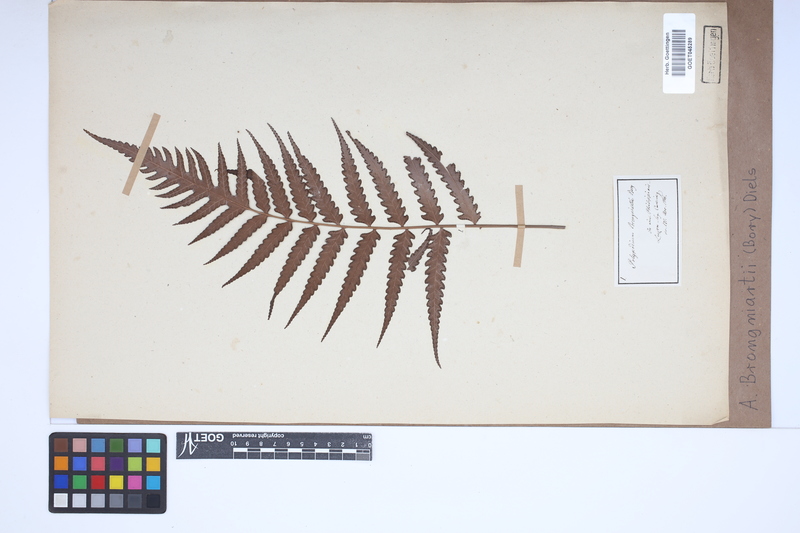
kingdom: Plantae
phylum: Tracheophyta
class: Polypodiopsida
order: Polypodiales
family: Dryopteridaceae
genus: Pleocnemia
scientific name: Pleocnemia brongniartii
